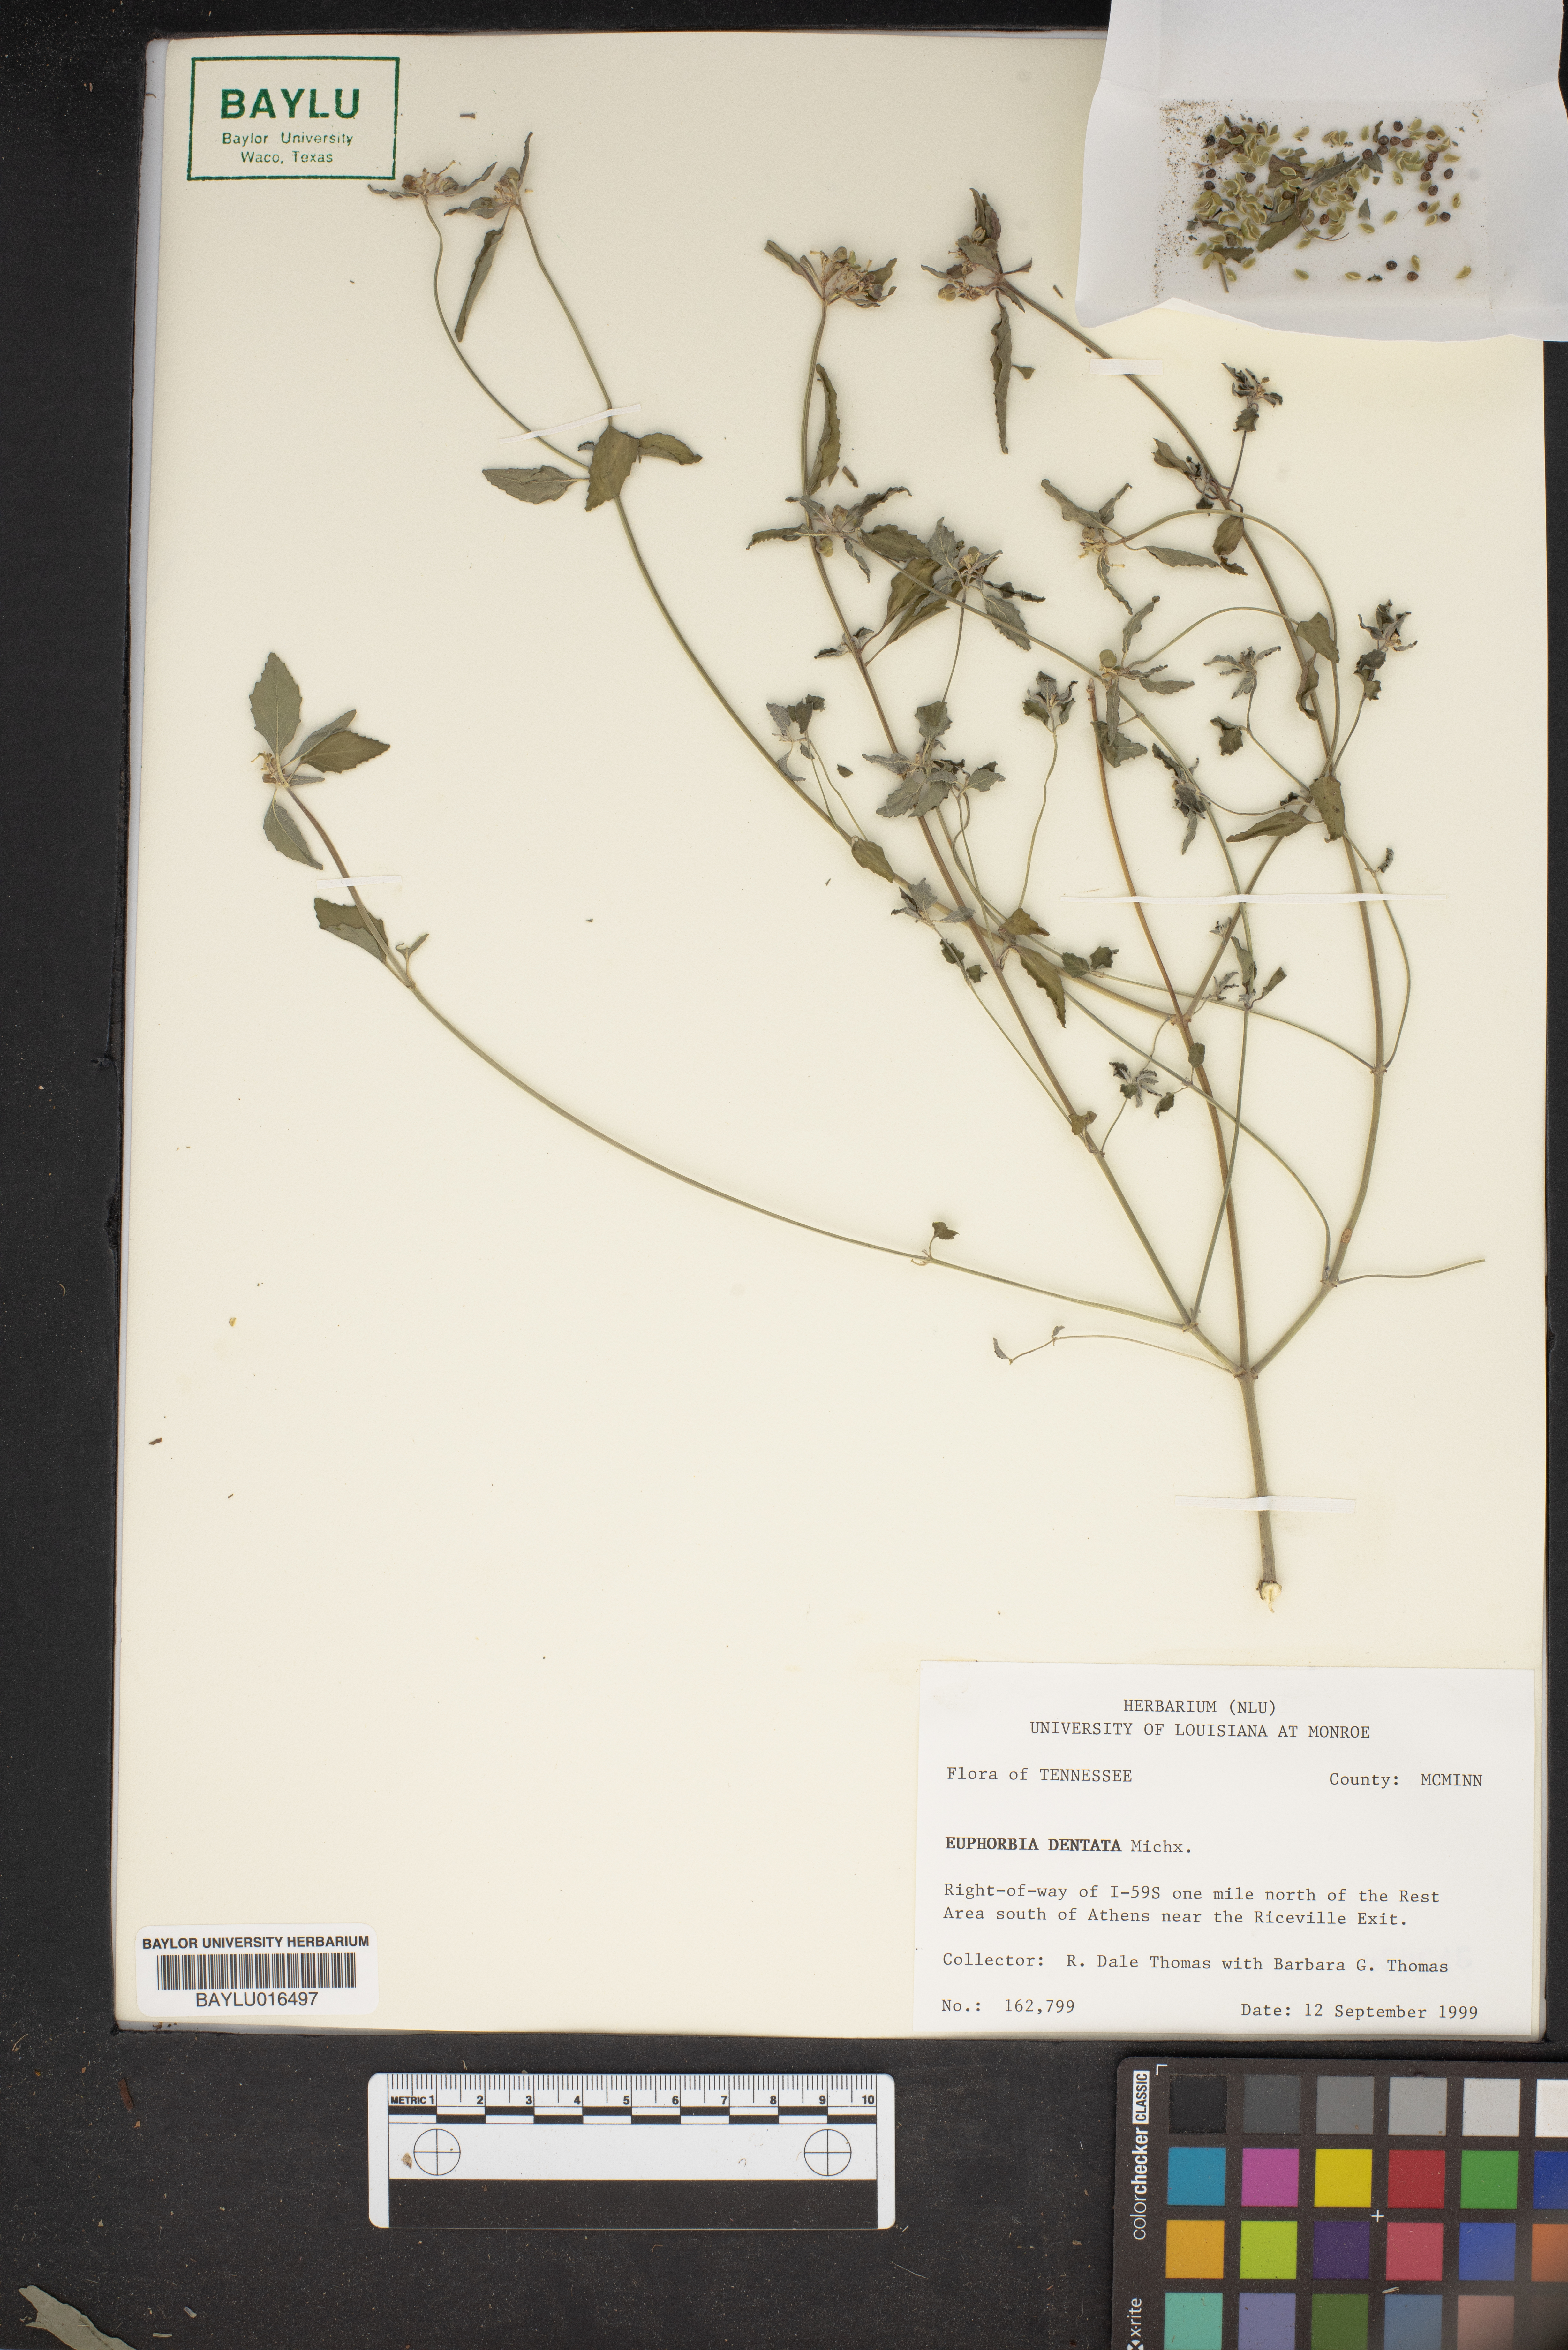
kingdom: Plantae
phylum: Tracheophyta
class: Magnoliopsida
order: Malpighiales
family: Euphorbiaceae
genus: Euphorbia
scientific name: Euphorbia dentata
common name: Dentate spurge
